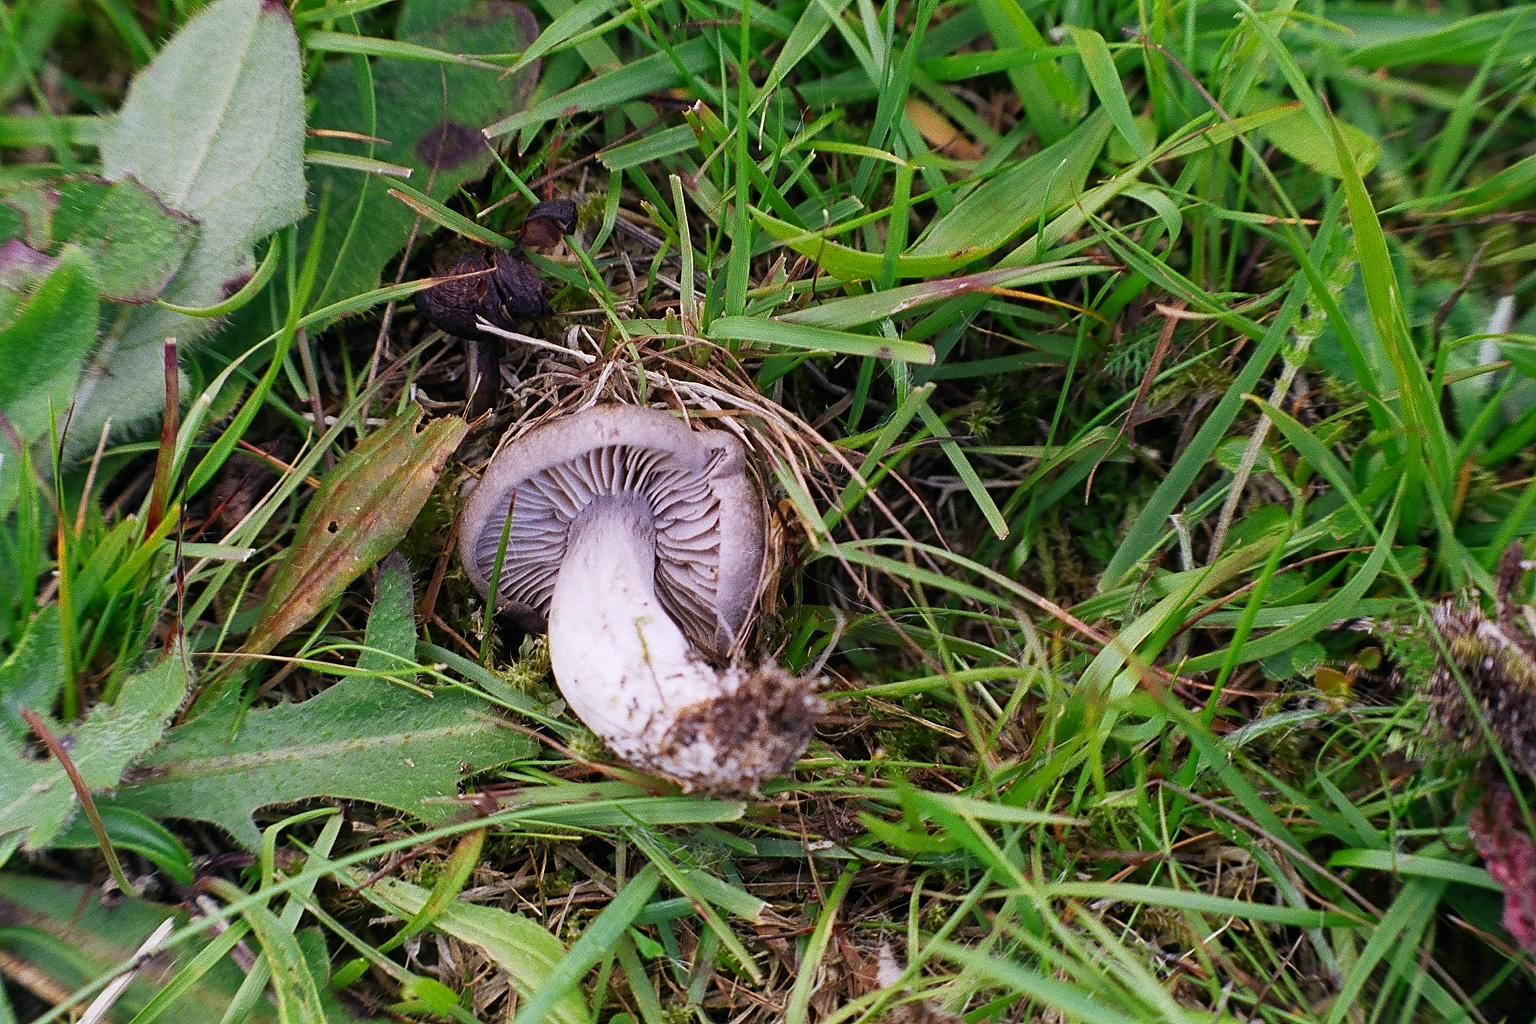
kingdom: Fungi
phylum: Basidiomycota
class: Agaricomycetes
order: Agaricales
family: Tricholomataceae
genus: Pseudotricholoma
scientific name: Pseudotricholoma metapodium
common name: rødmende alfehat
